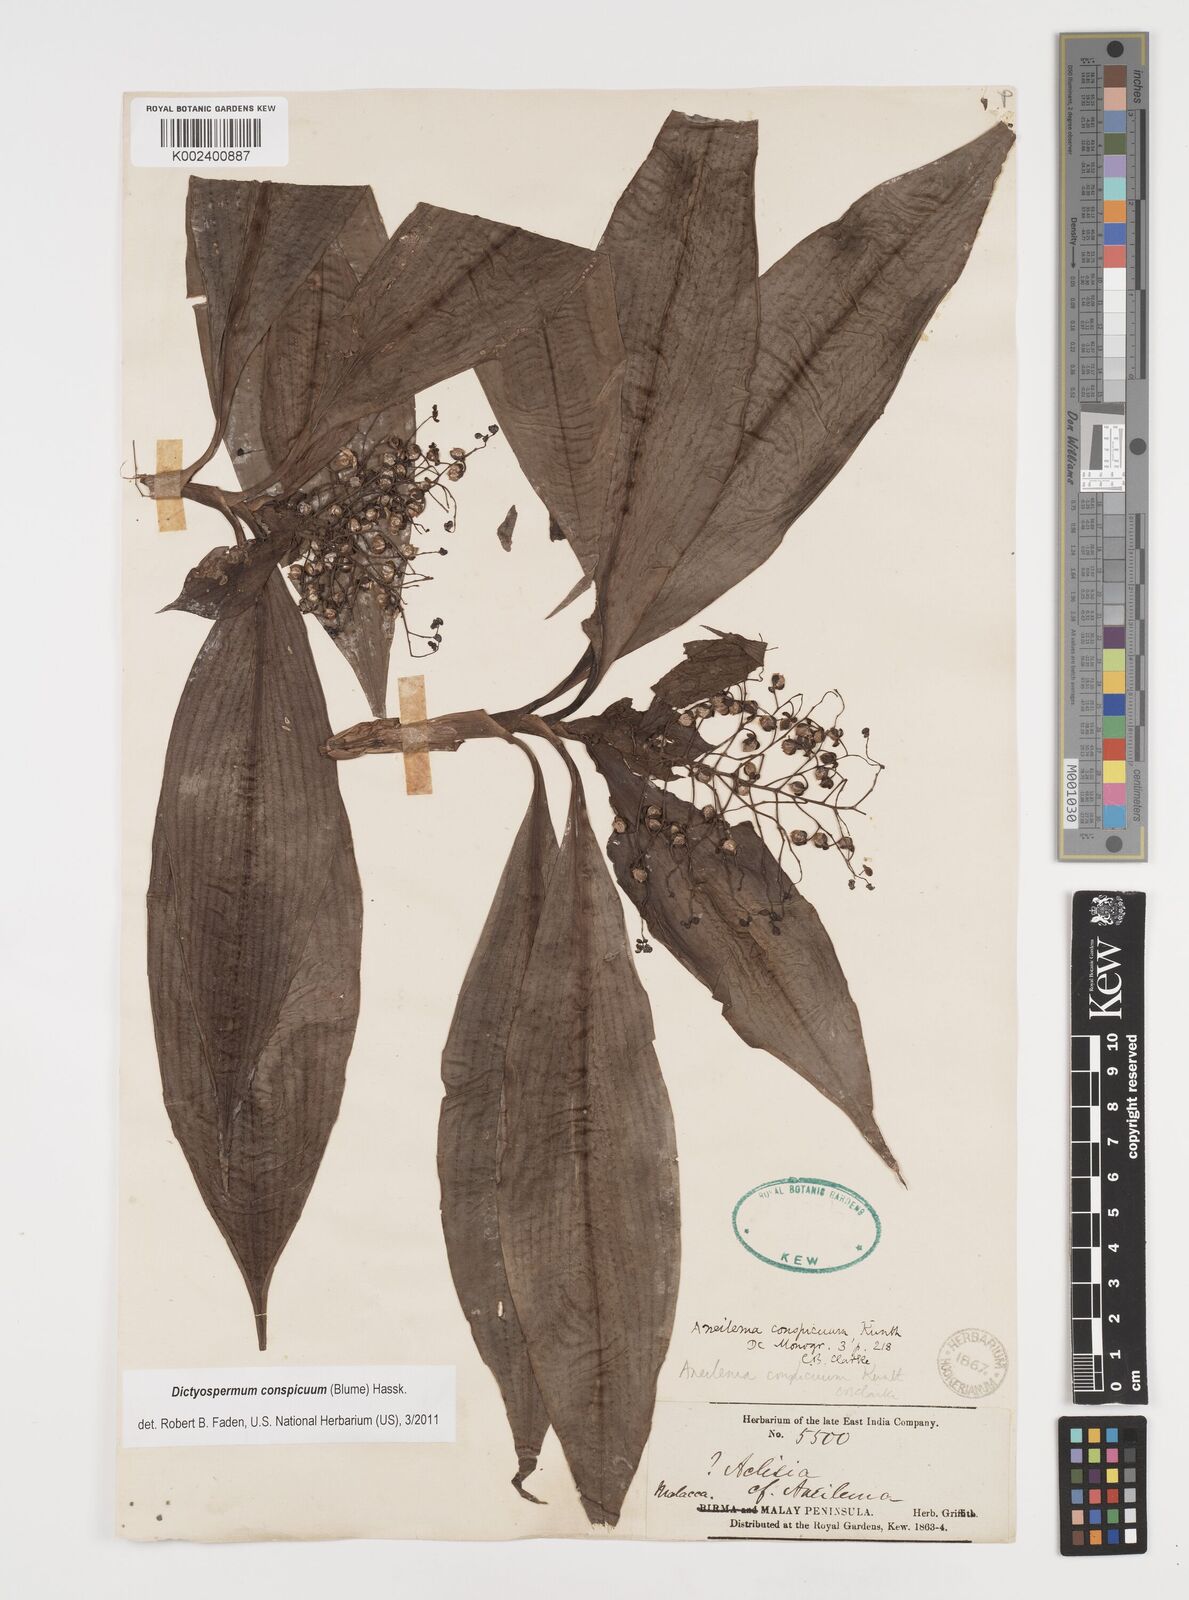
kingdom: Plantae
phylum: Tracheophyta
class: Liliopsida
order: Commelinales
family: Commelinaceae
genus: Dictyospermum
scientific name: Dictyospermum conspicuum
